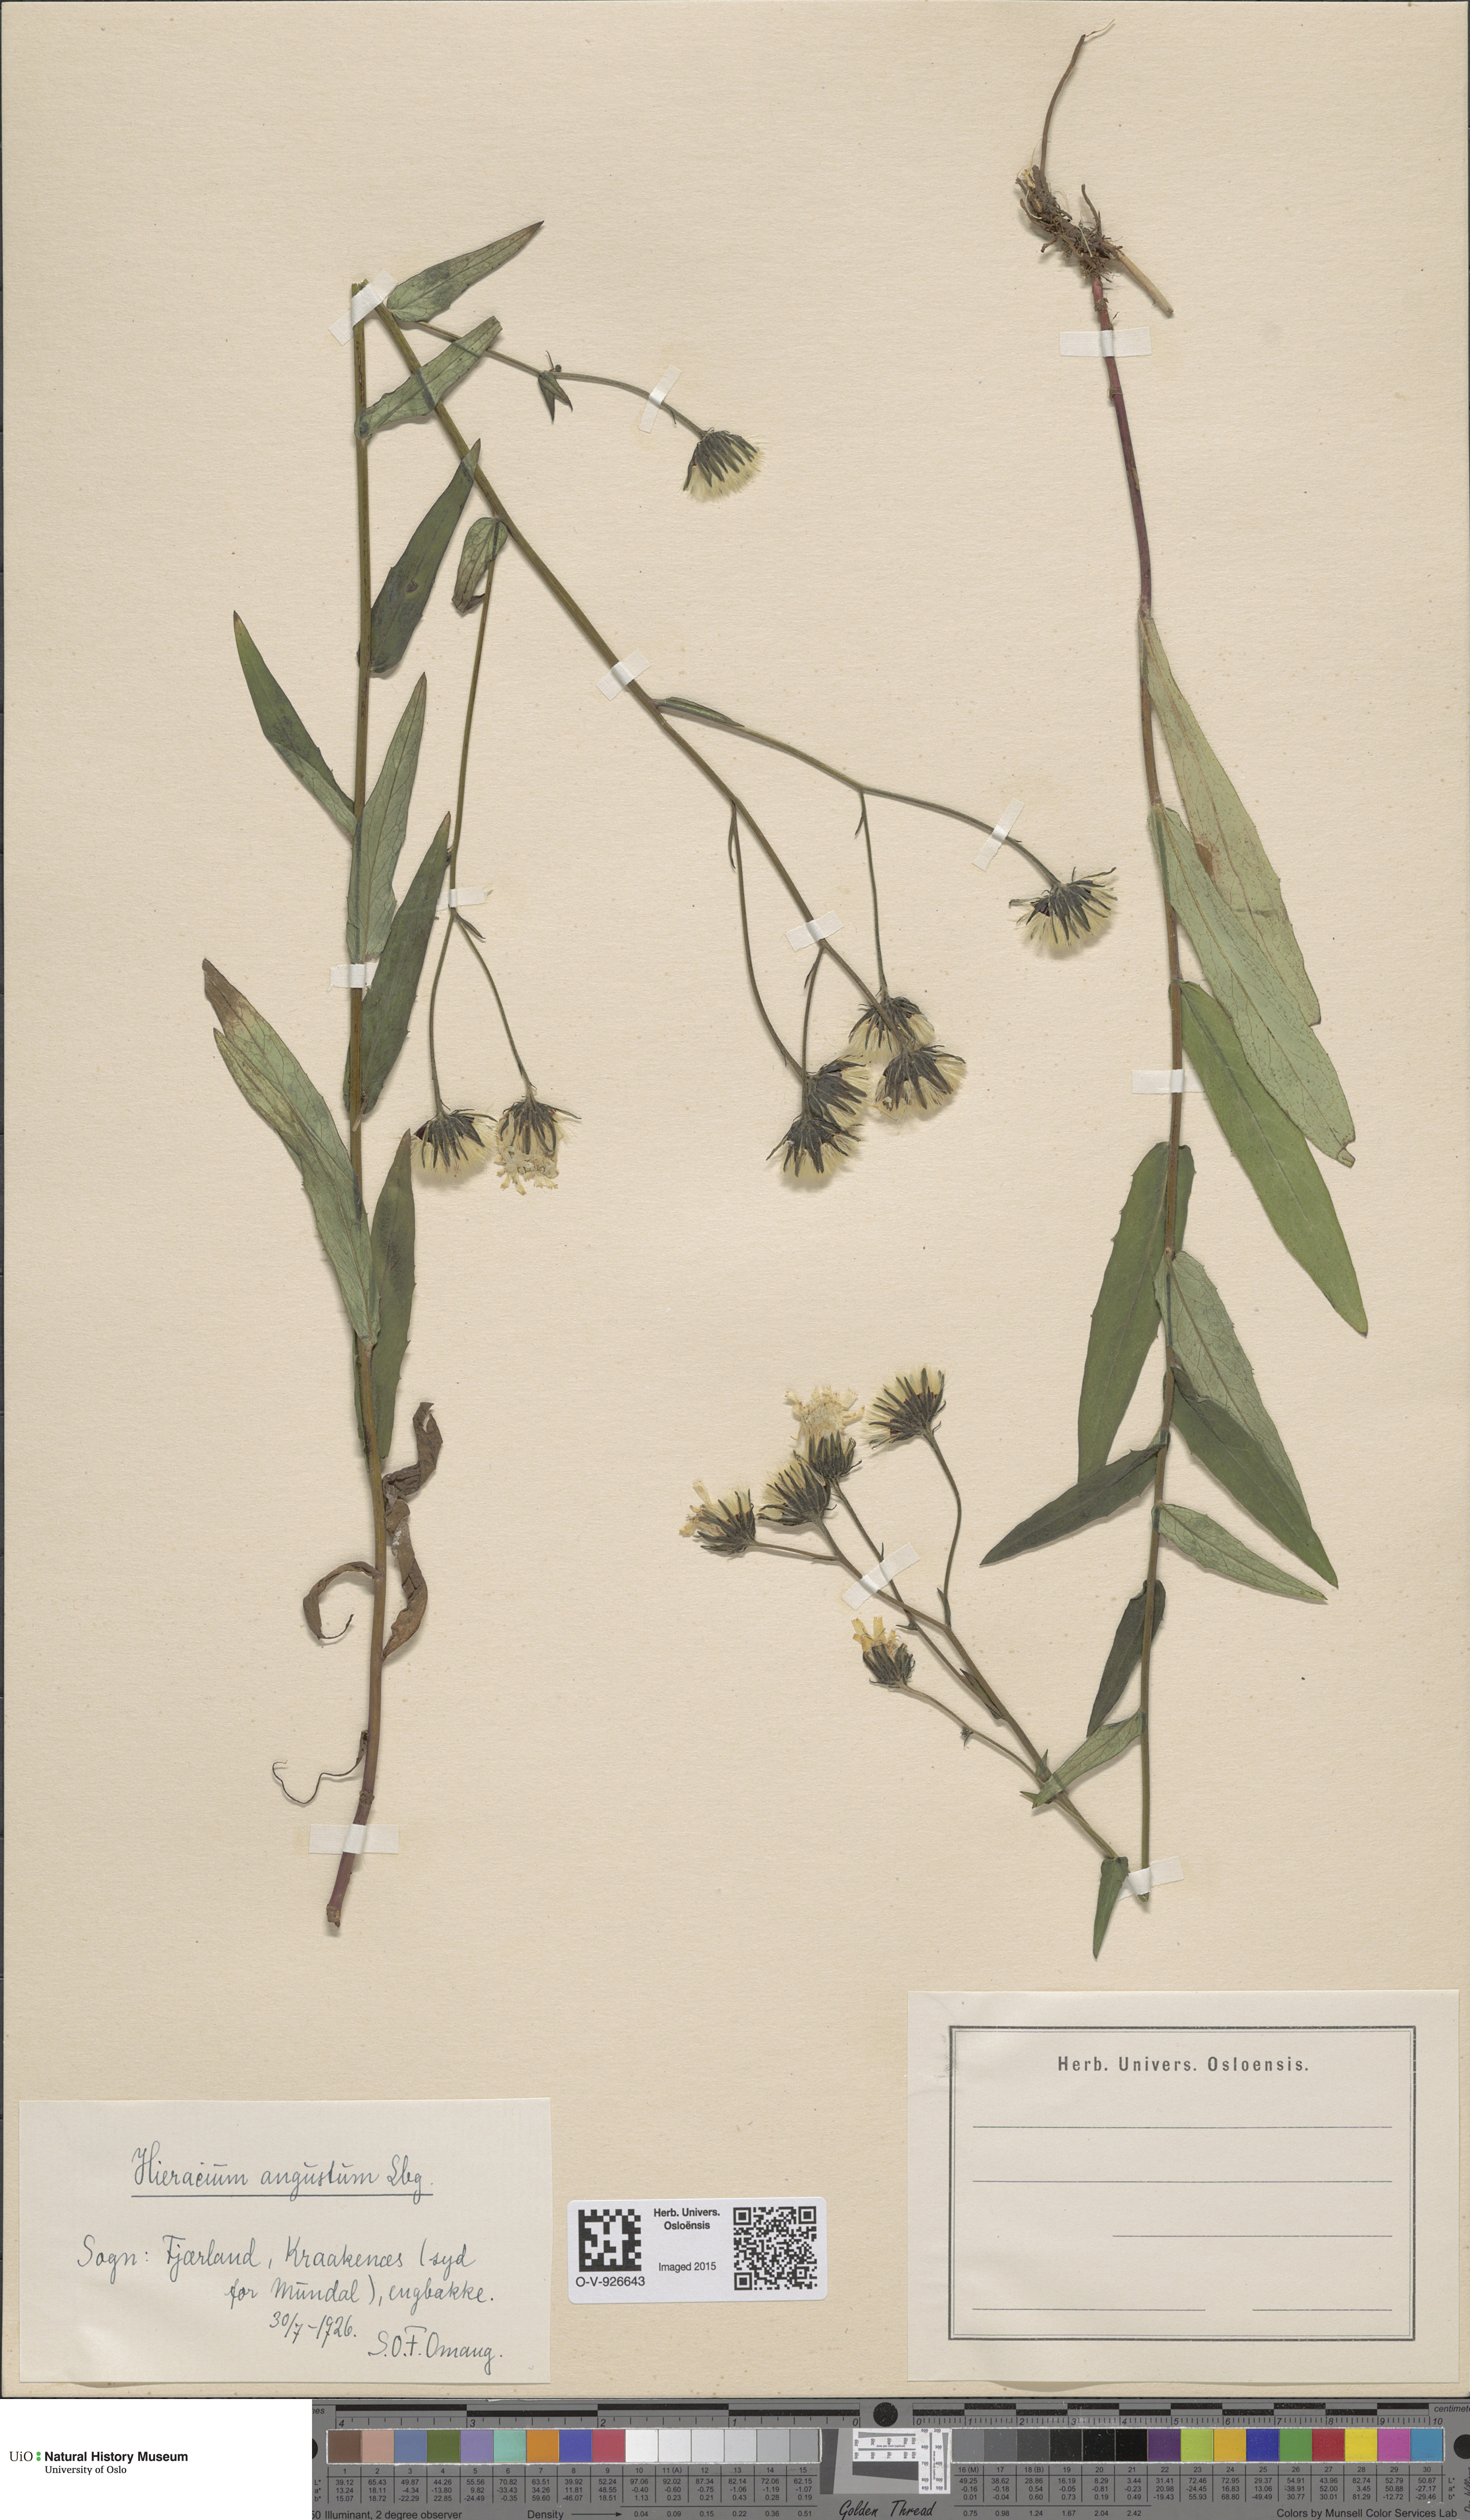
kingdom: Plantae
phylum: Tracheophyta
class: Magnoliopsida
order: Asterales
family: Asteraceae
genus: Hieracium
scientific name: Hieracium angustum
